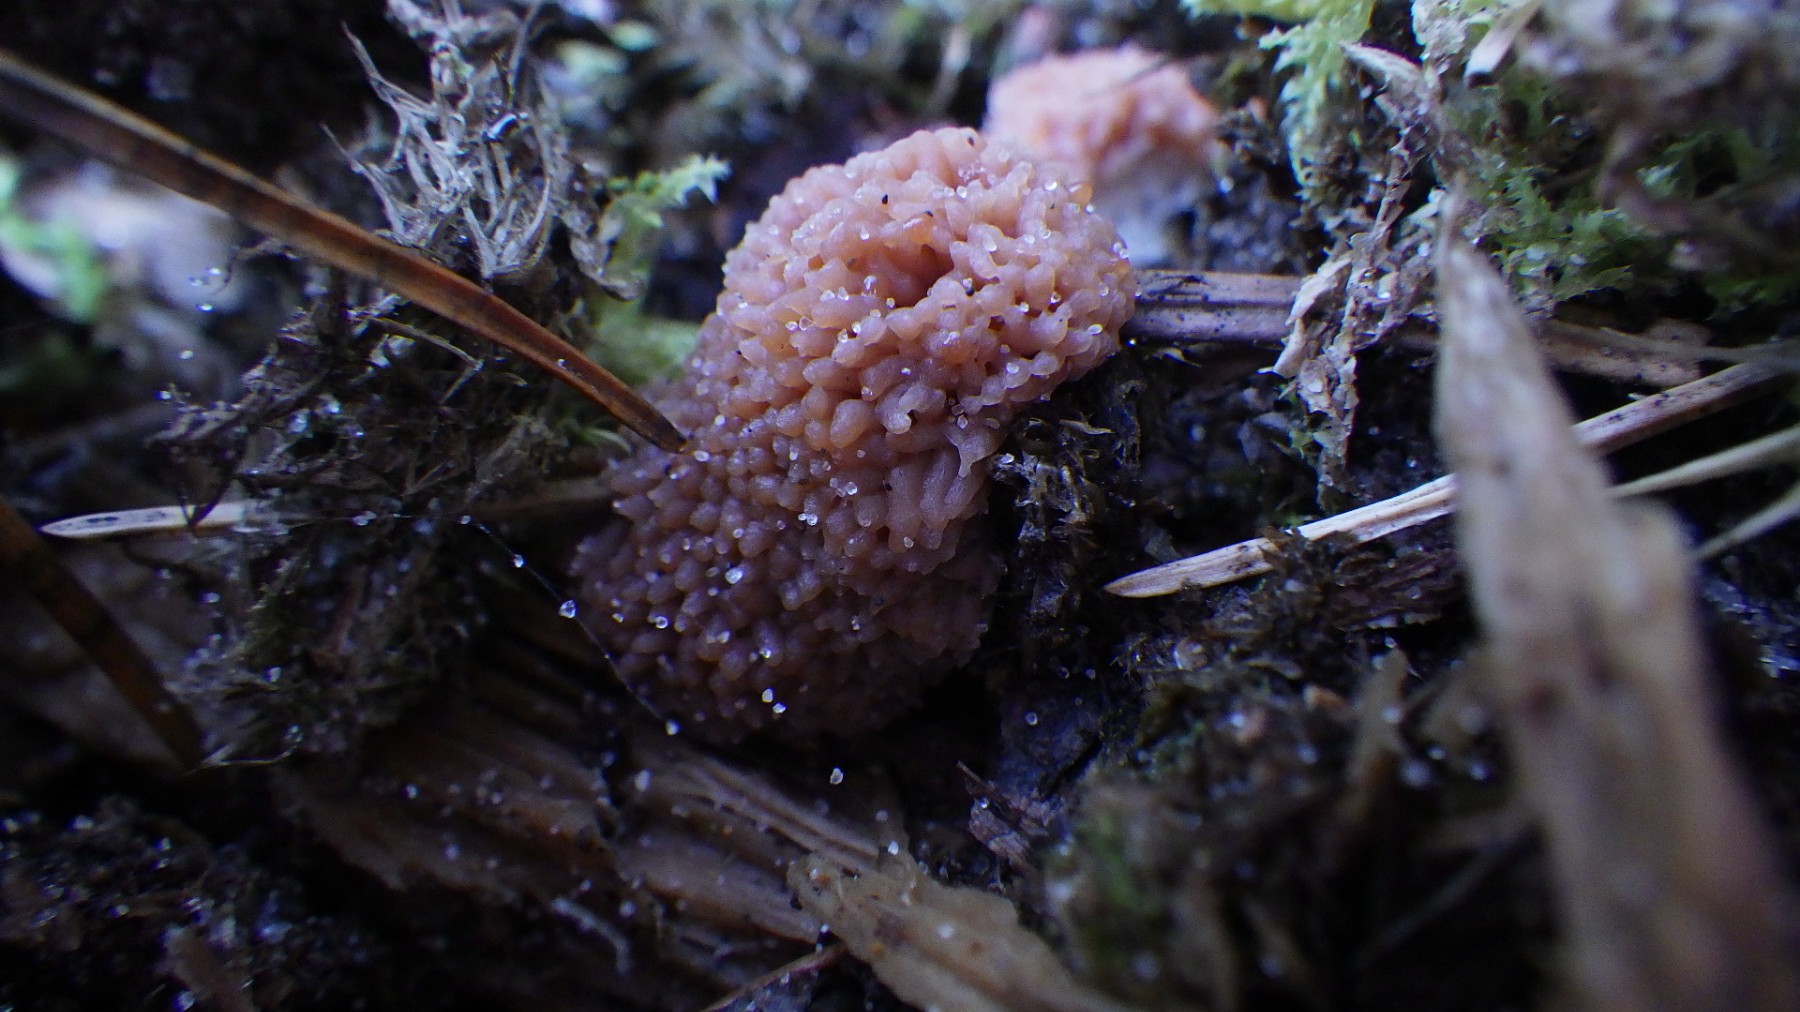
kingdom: Protozoa
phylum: Mycetozoa
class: Myxomycetes
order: Cribrariales
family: Tubiferaceae
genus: Tubifera
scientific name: Tubifera ferruginosa
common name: kanel-støvrør
